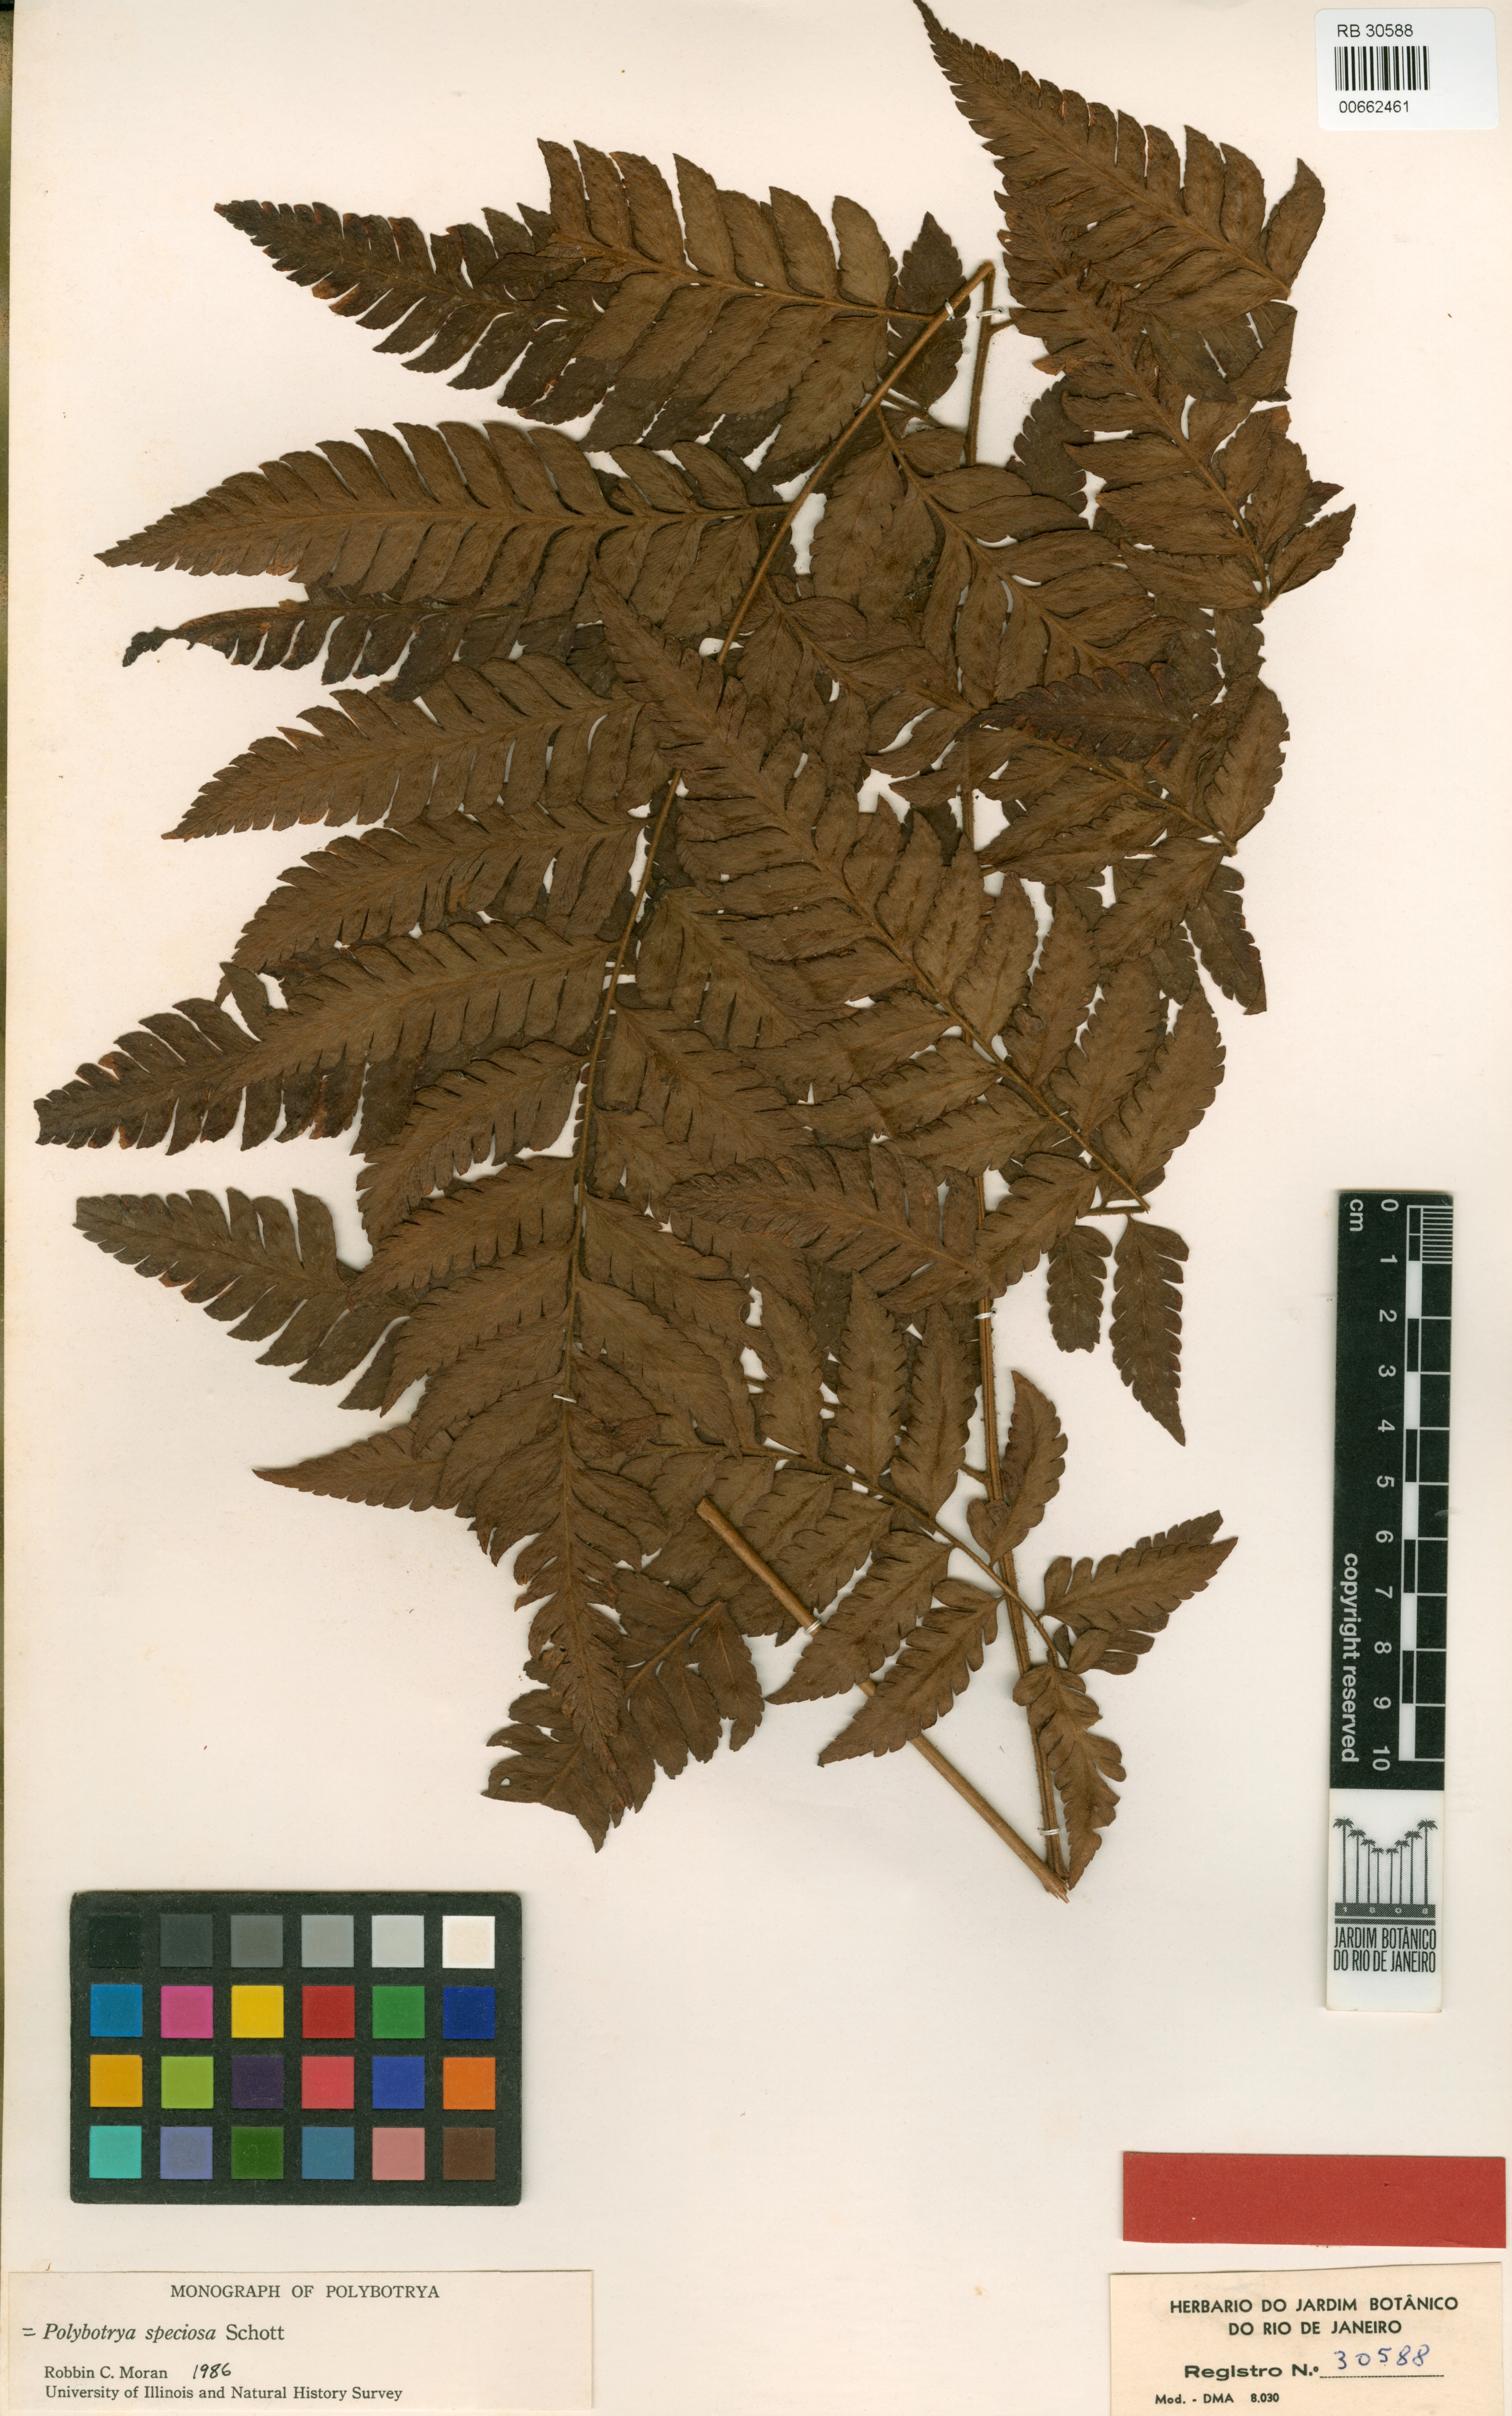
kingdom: Plantae
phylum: Tracheophyta
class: Polypodiopsida
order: Polypodiales
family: Dryopteridaceae
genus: Polybotrya
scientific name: Polybotrya speciosa
